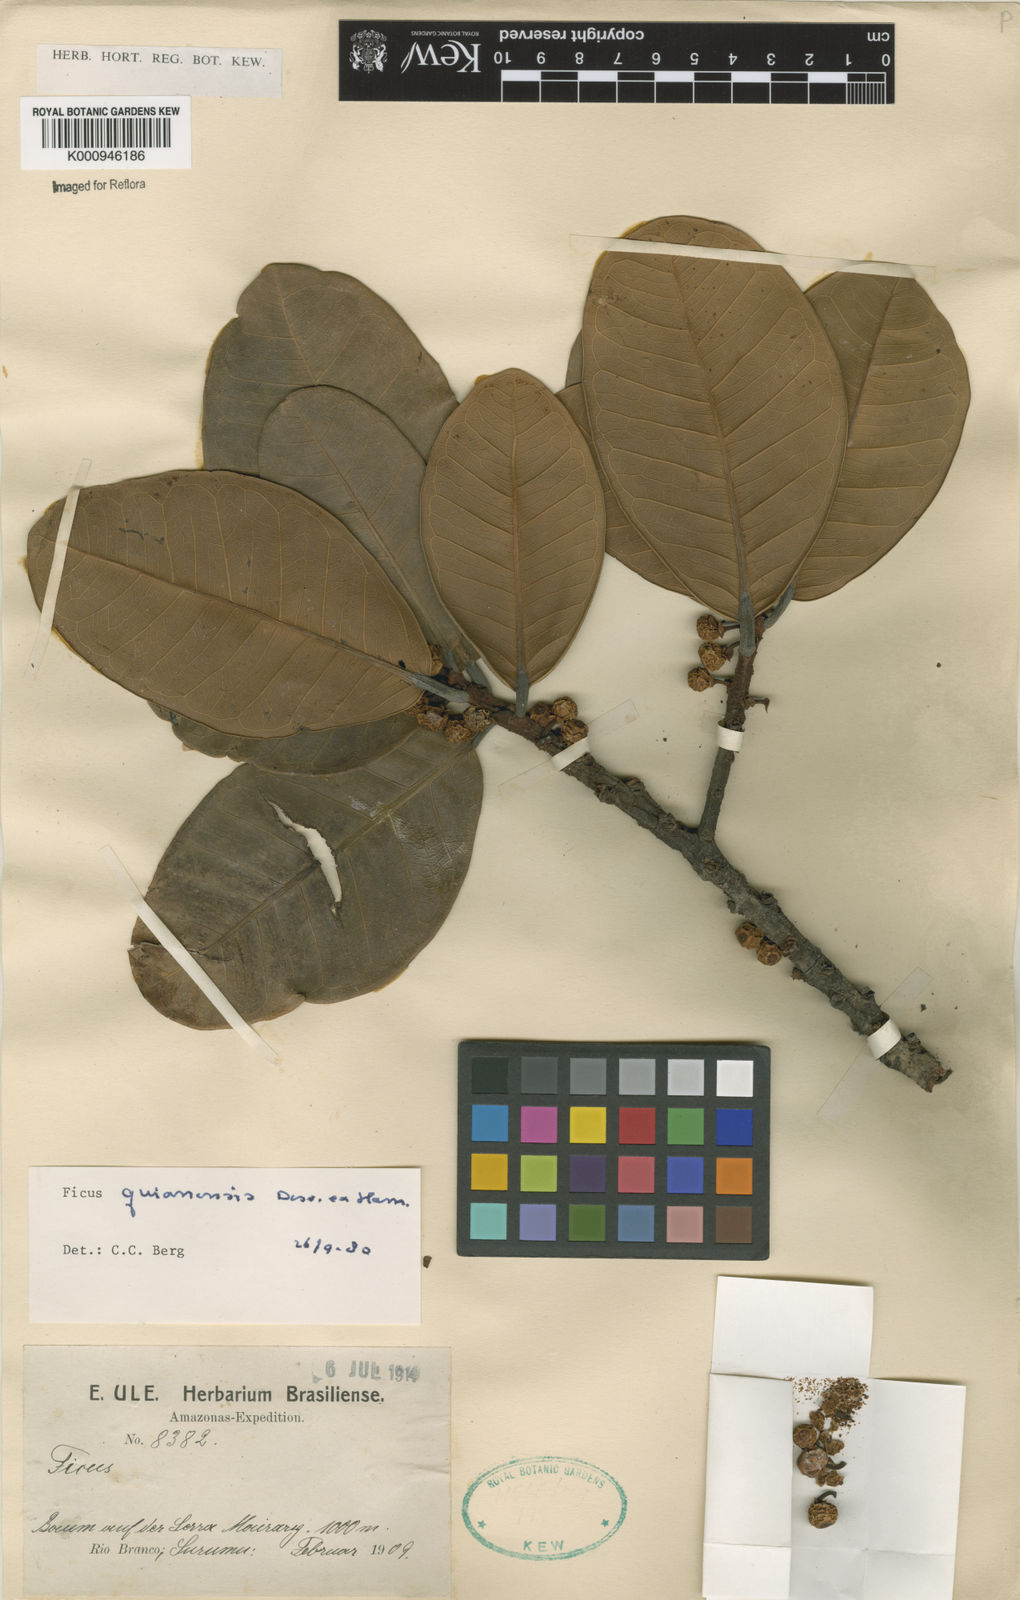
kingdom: Plantae
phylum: Tracheophyta
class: Magnoliopsida
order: Rosales
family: Moraceae
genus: Ficus
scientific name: Ficus americana
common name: Jamaican cherry fig
